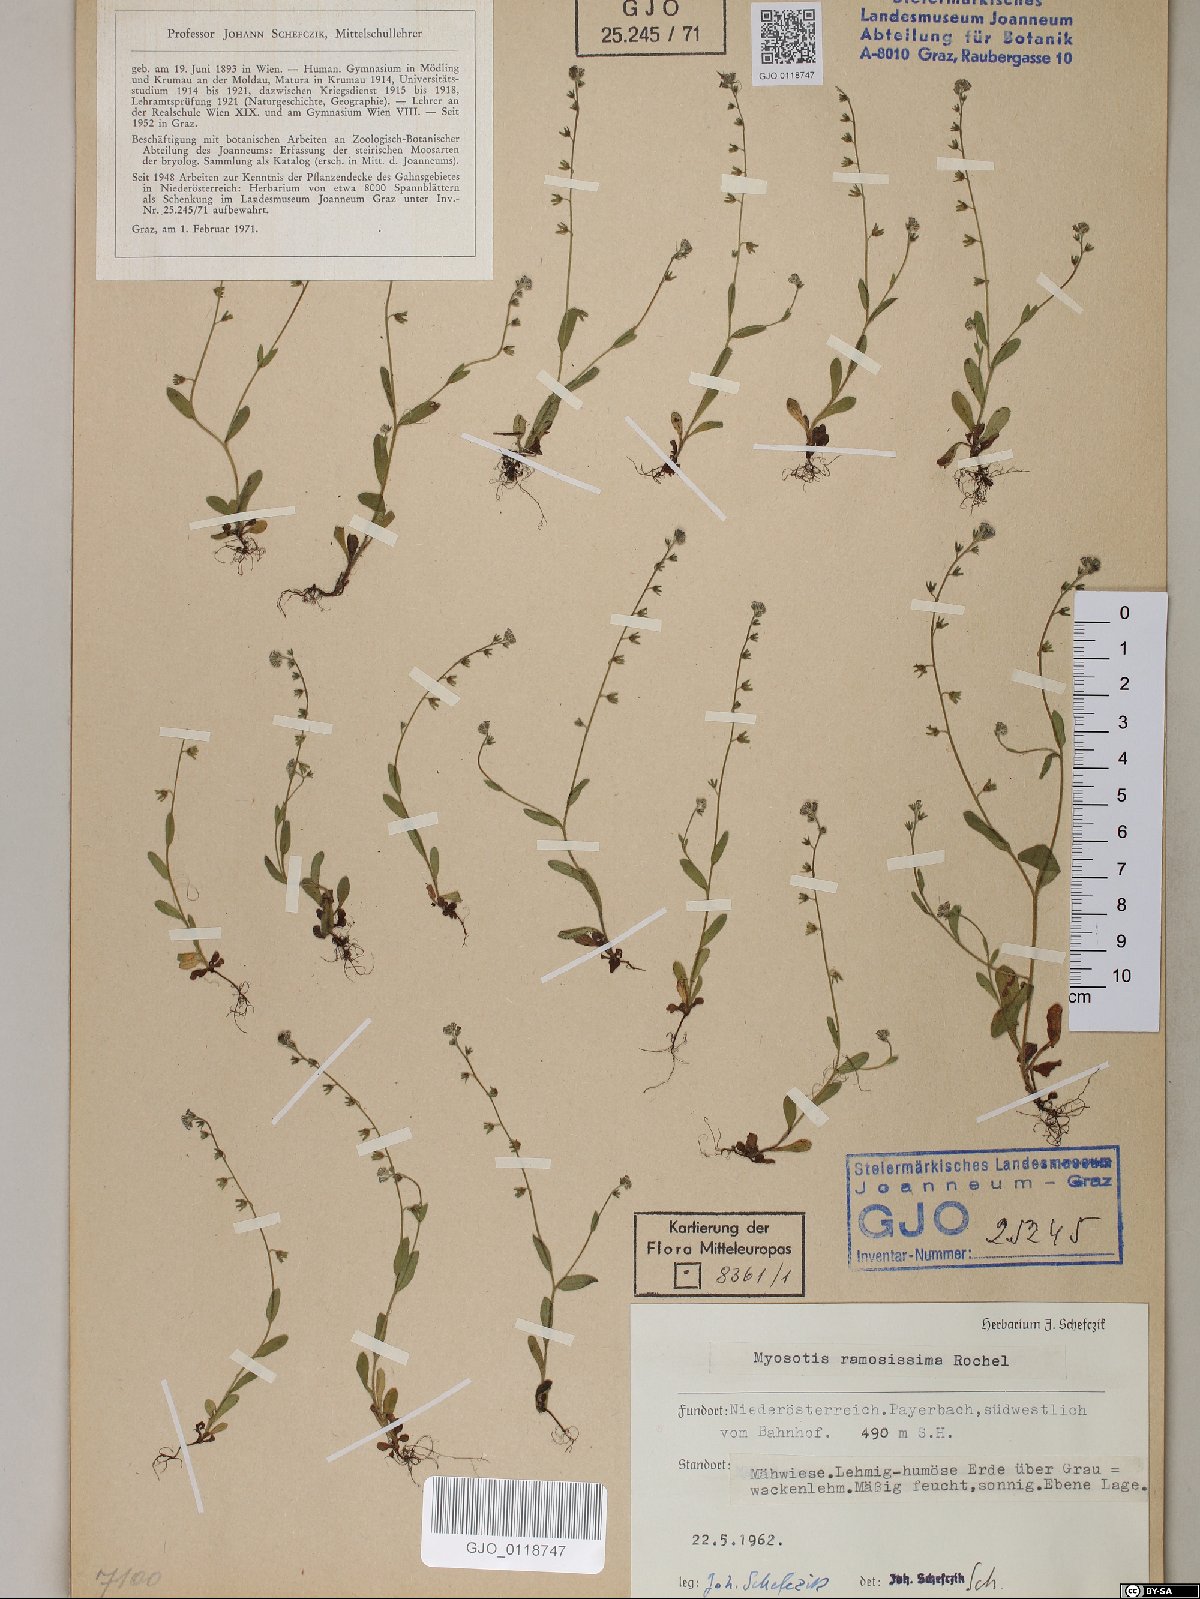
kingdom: Plantae
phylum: Tracheophyta
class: Magnoliopsida
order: Boraginales
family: Boraginaceae
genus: Myosotis
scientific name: Myosotis ramosissima
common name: Early forget-me-not
